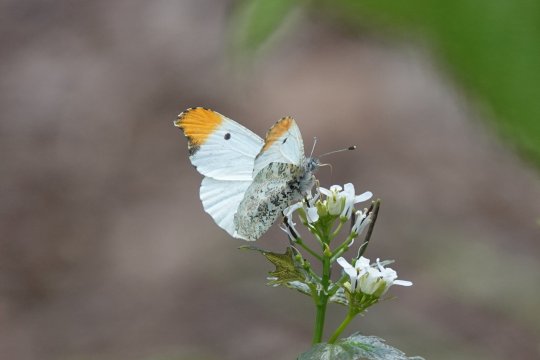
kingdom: Animalia
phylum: Arthropoda
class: Insecta
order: Lepidoptera
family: Pieridae
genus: Anthocharis
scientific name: Anthocharis midea
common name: Falcate Orangetip
